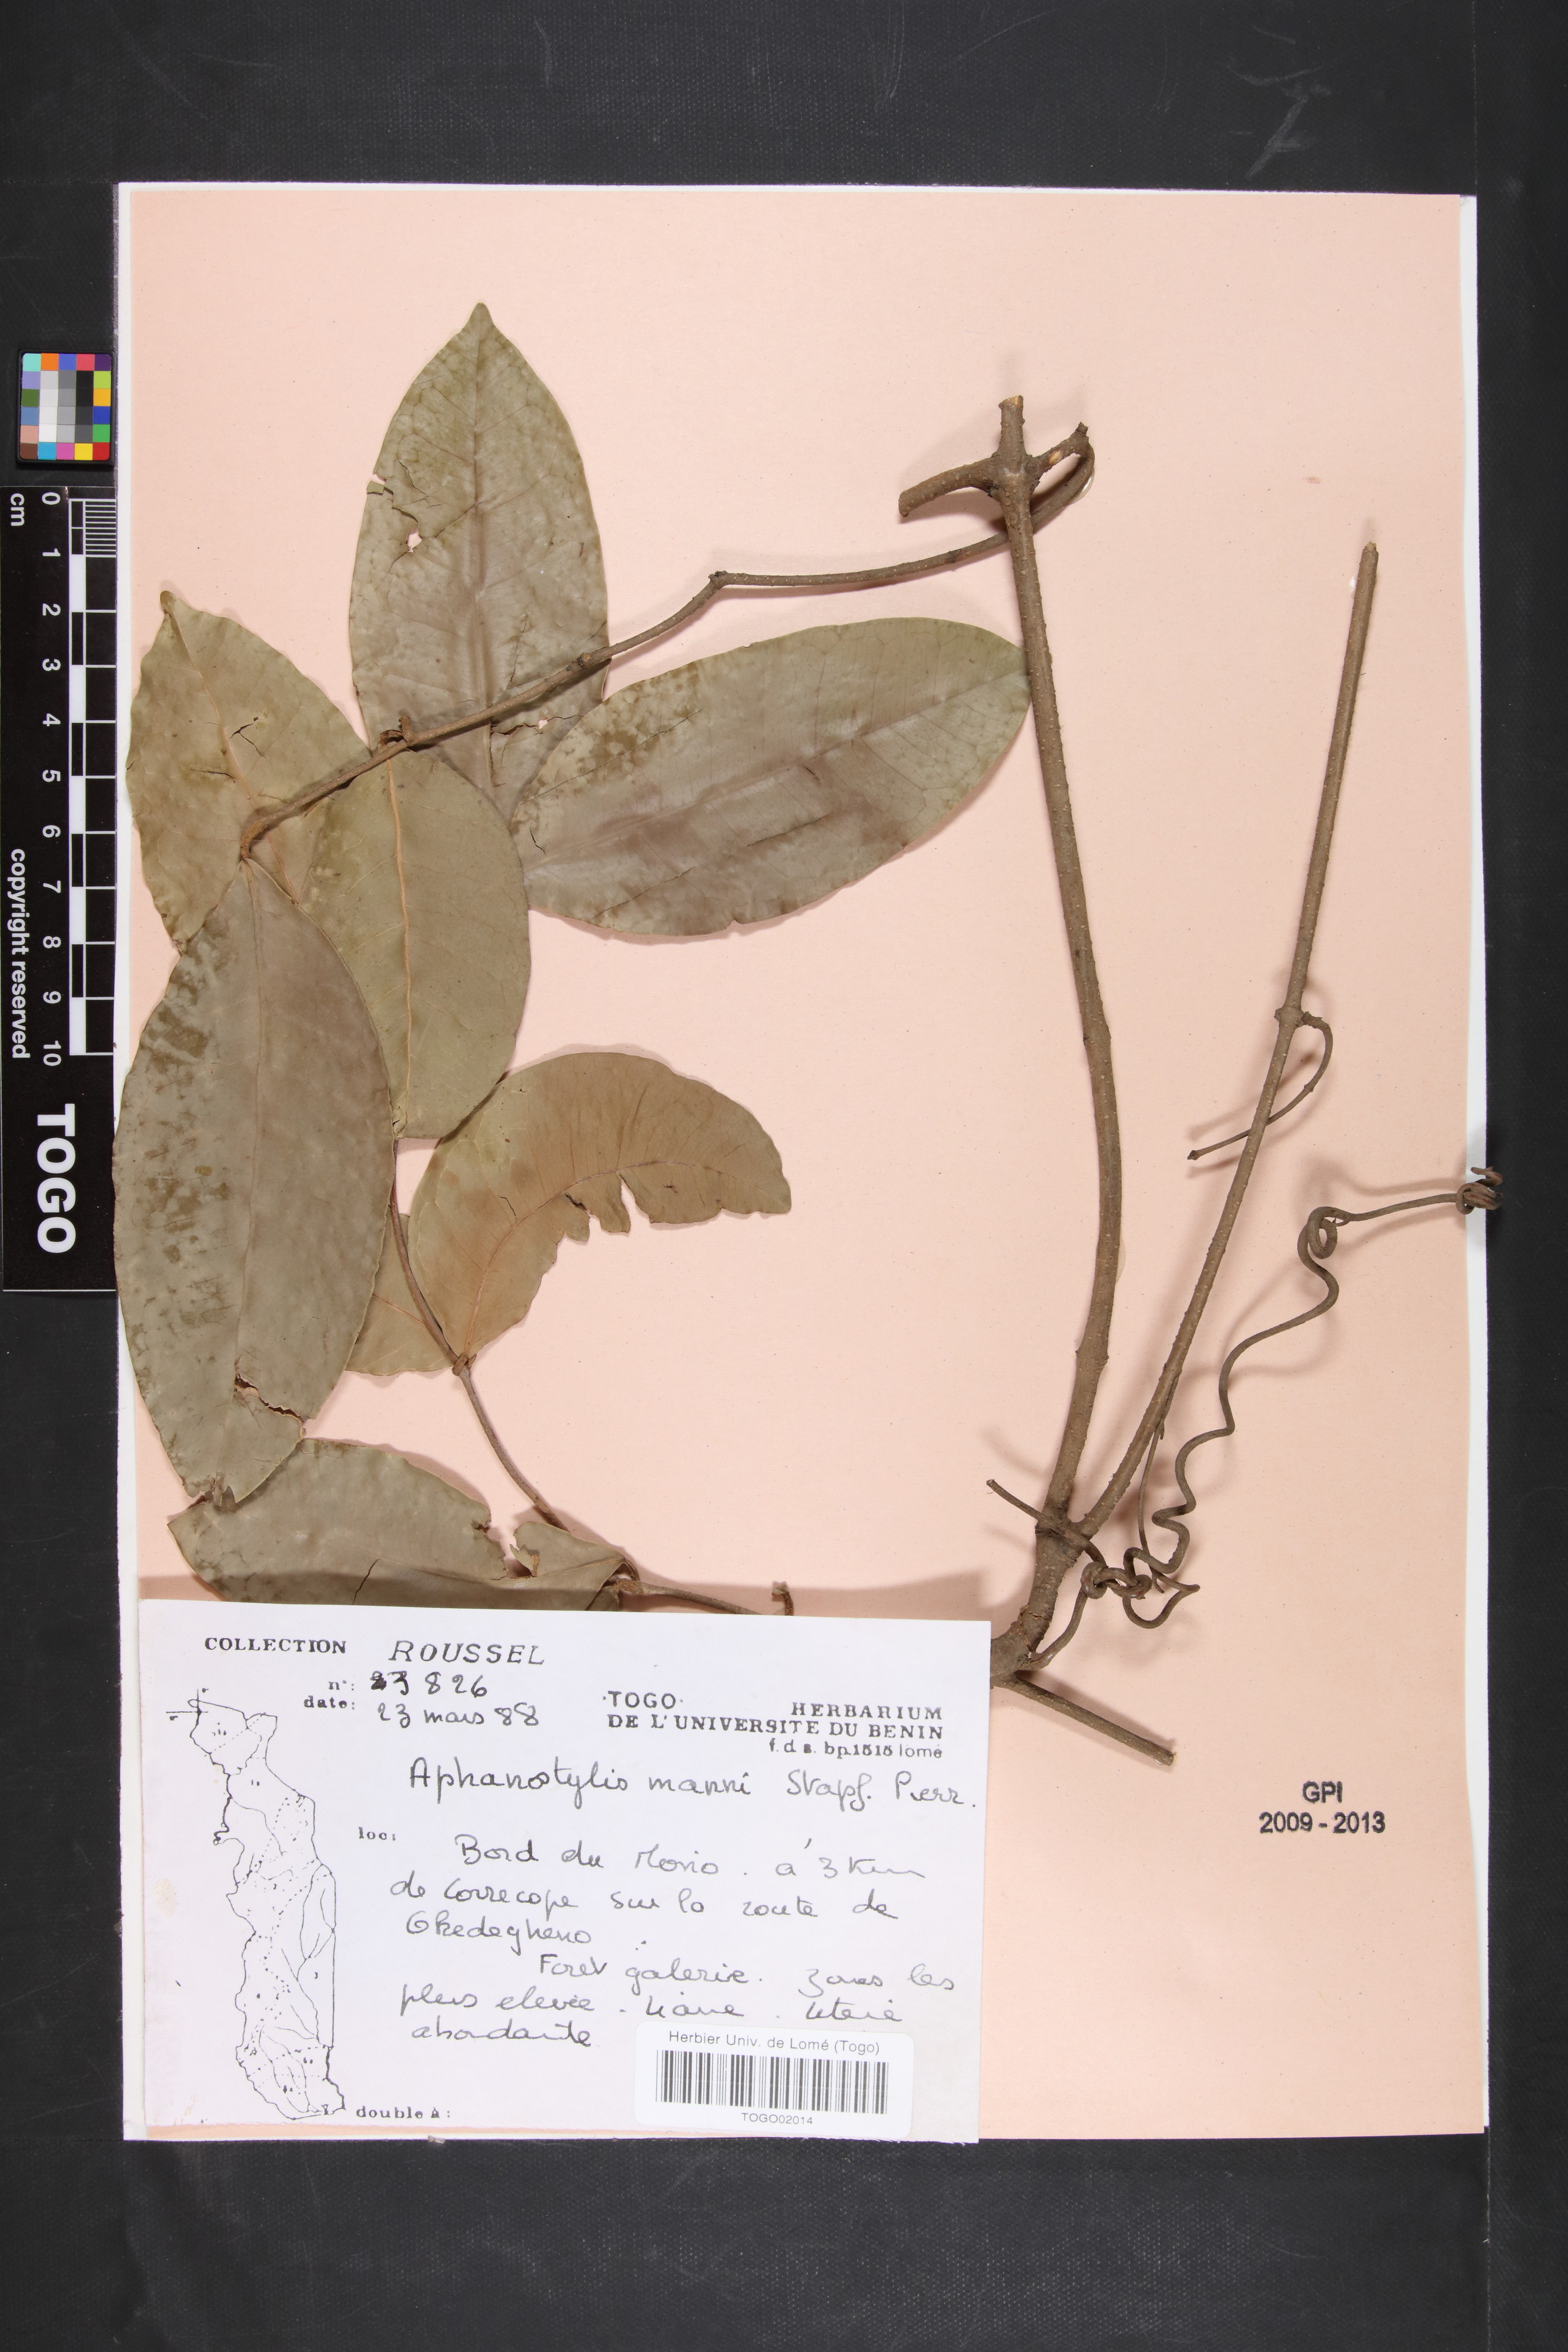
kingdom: Plantae
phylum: Tracheophyta
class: Magnoliopsida
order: Gentianales
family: Apocynaceae
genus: Landolphia
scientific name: Landolphia incerta
